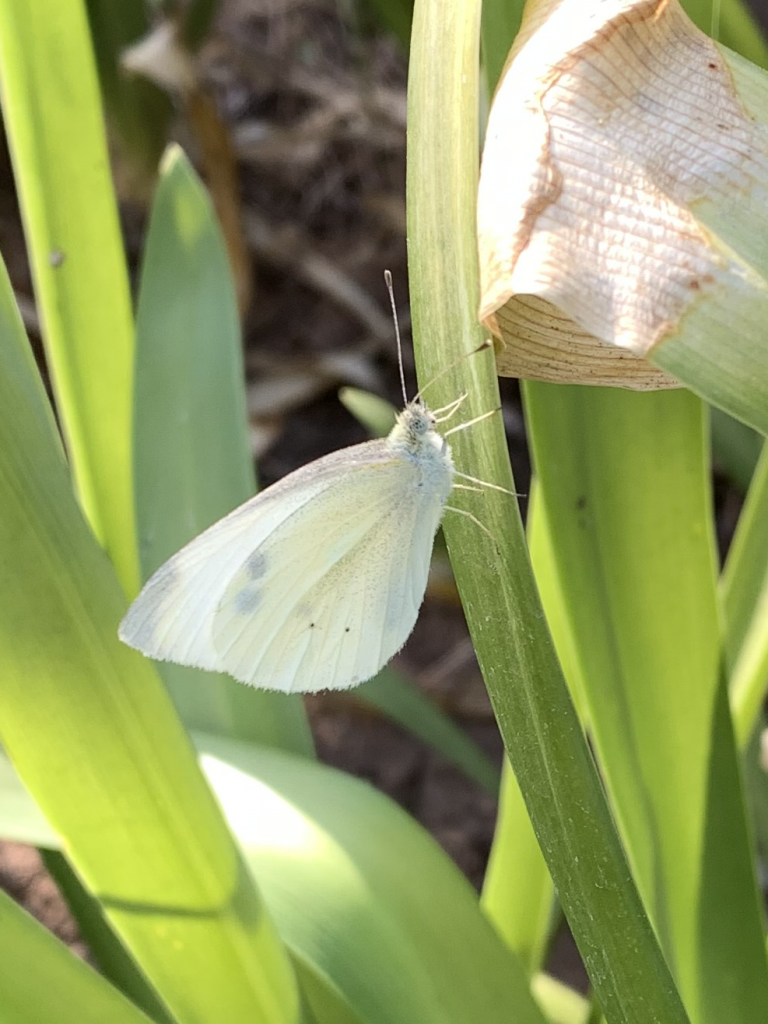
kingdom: Animalia
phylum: Arthropoda
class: Insecta
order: Lepidoptera
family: Pieridae
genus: Pieris
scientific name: Pieris rapae
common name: Cabbage White
